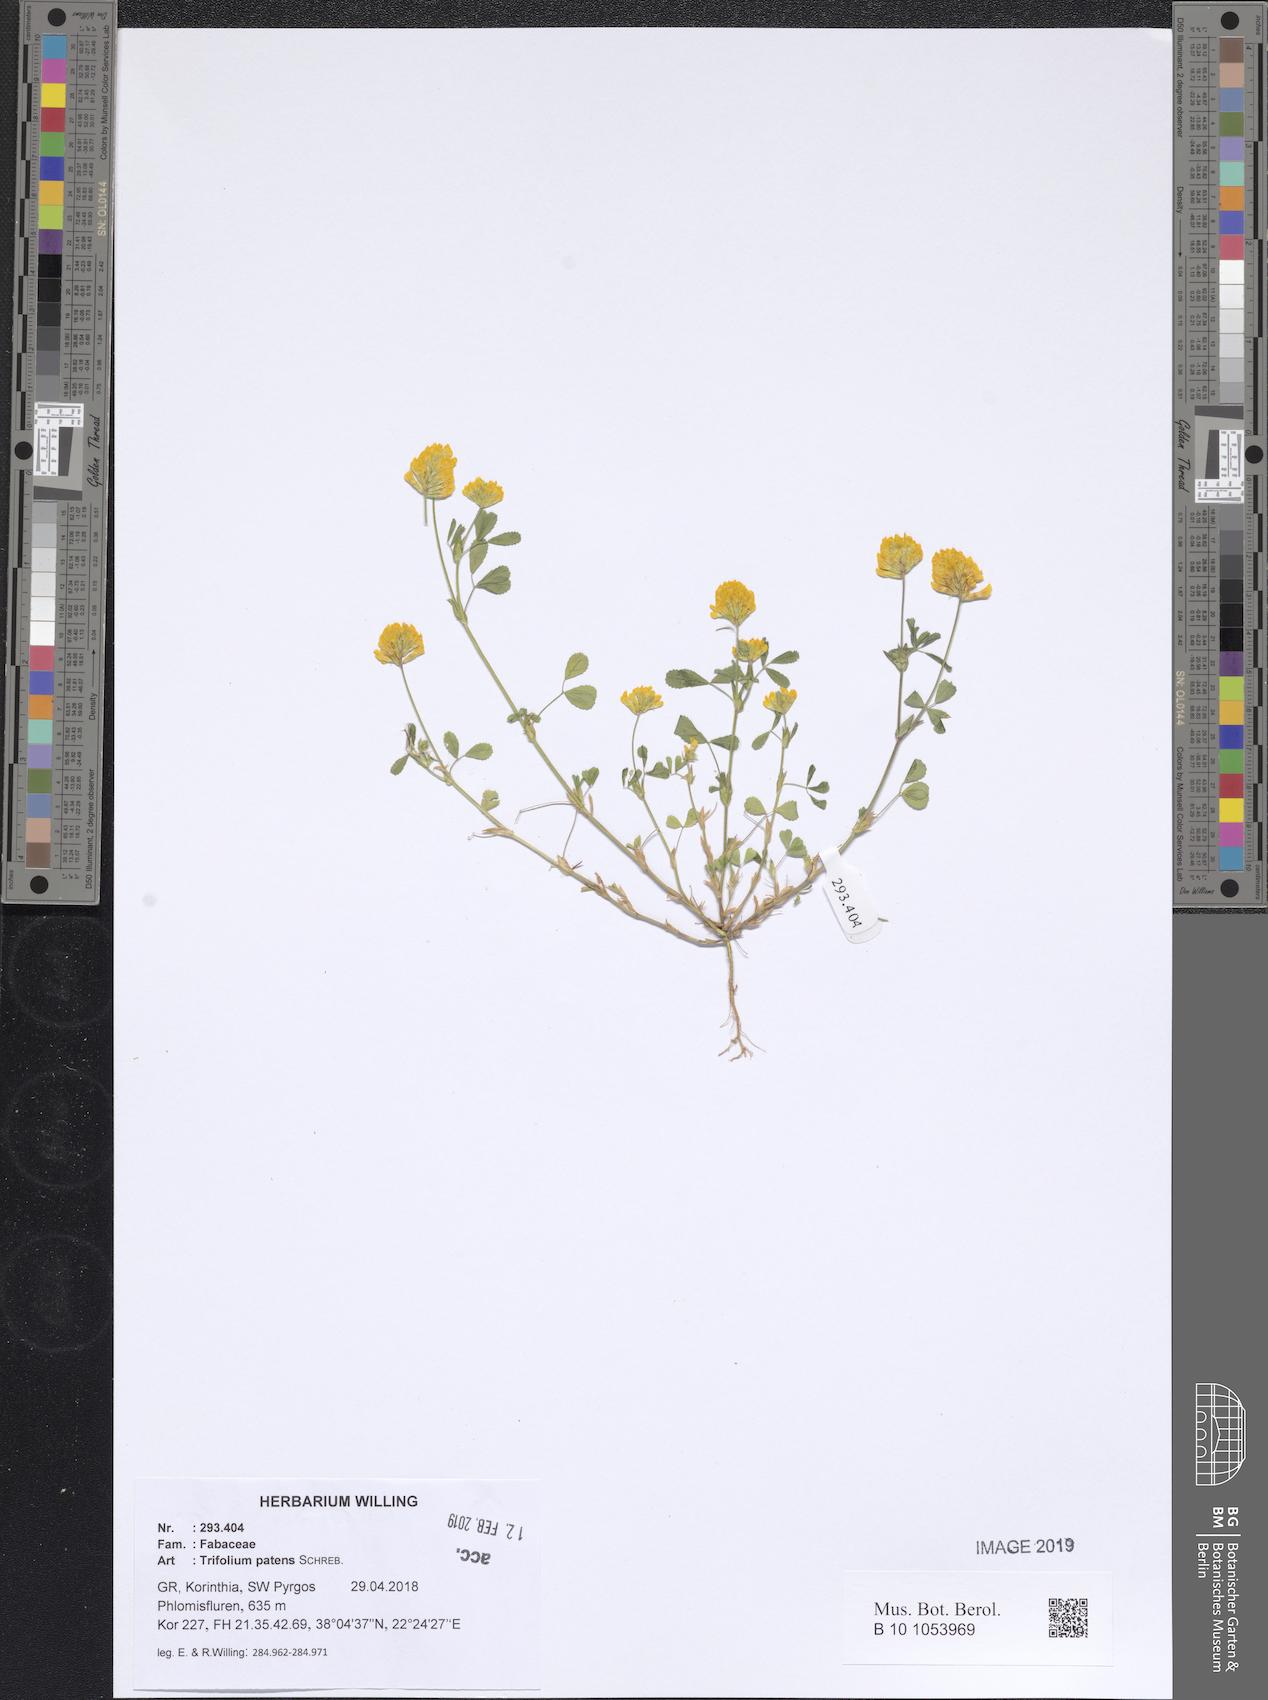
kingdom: Plantae
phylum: Tracheophyta
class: Magnoliopsida
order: Fabales
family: Fabaceae
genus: Trifolium
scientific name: Trifolium patens
